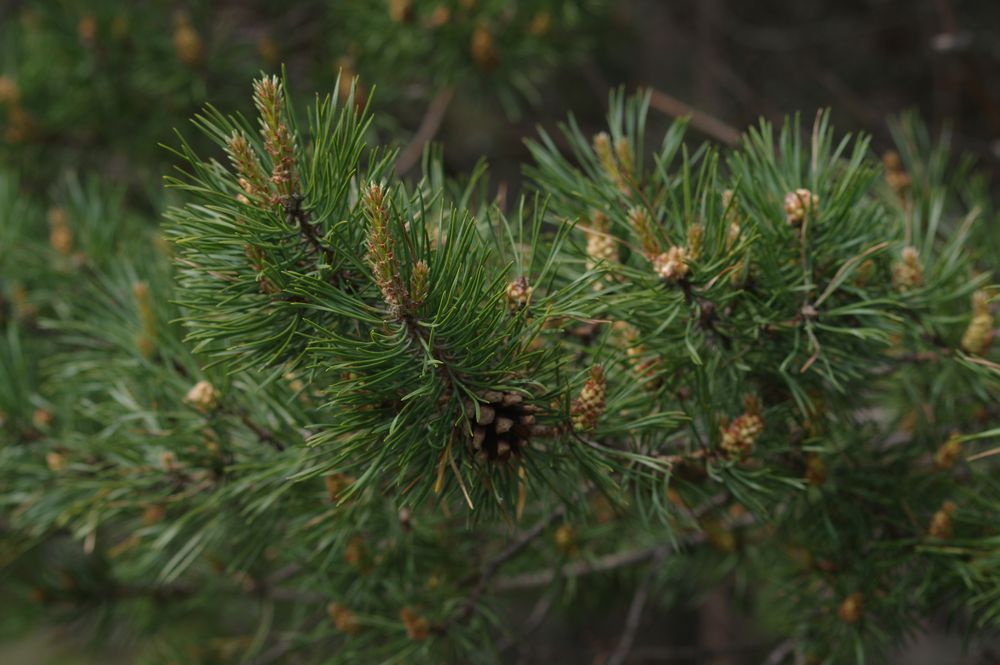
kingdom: Plantae
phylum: Tracheophyta
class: Pinopsida
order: Pinales
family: Pinaceae
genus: Pinus
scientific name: Pinus sylvestris
